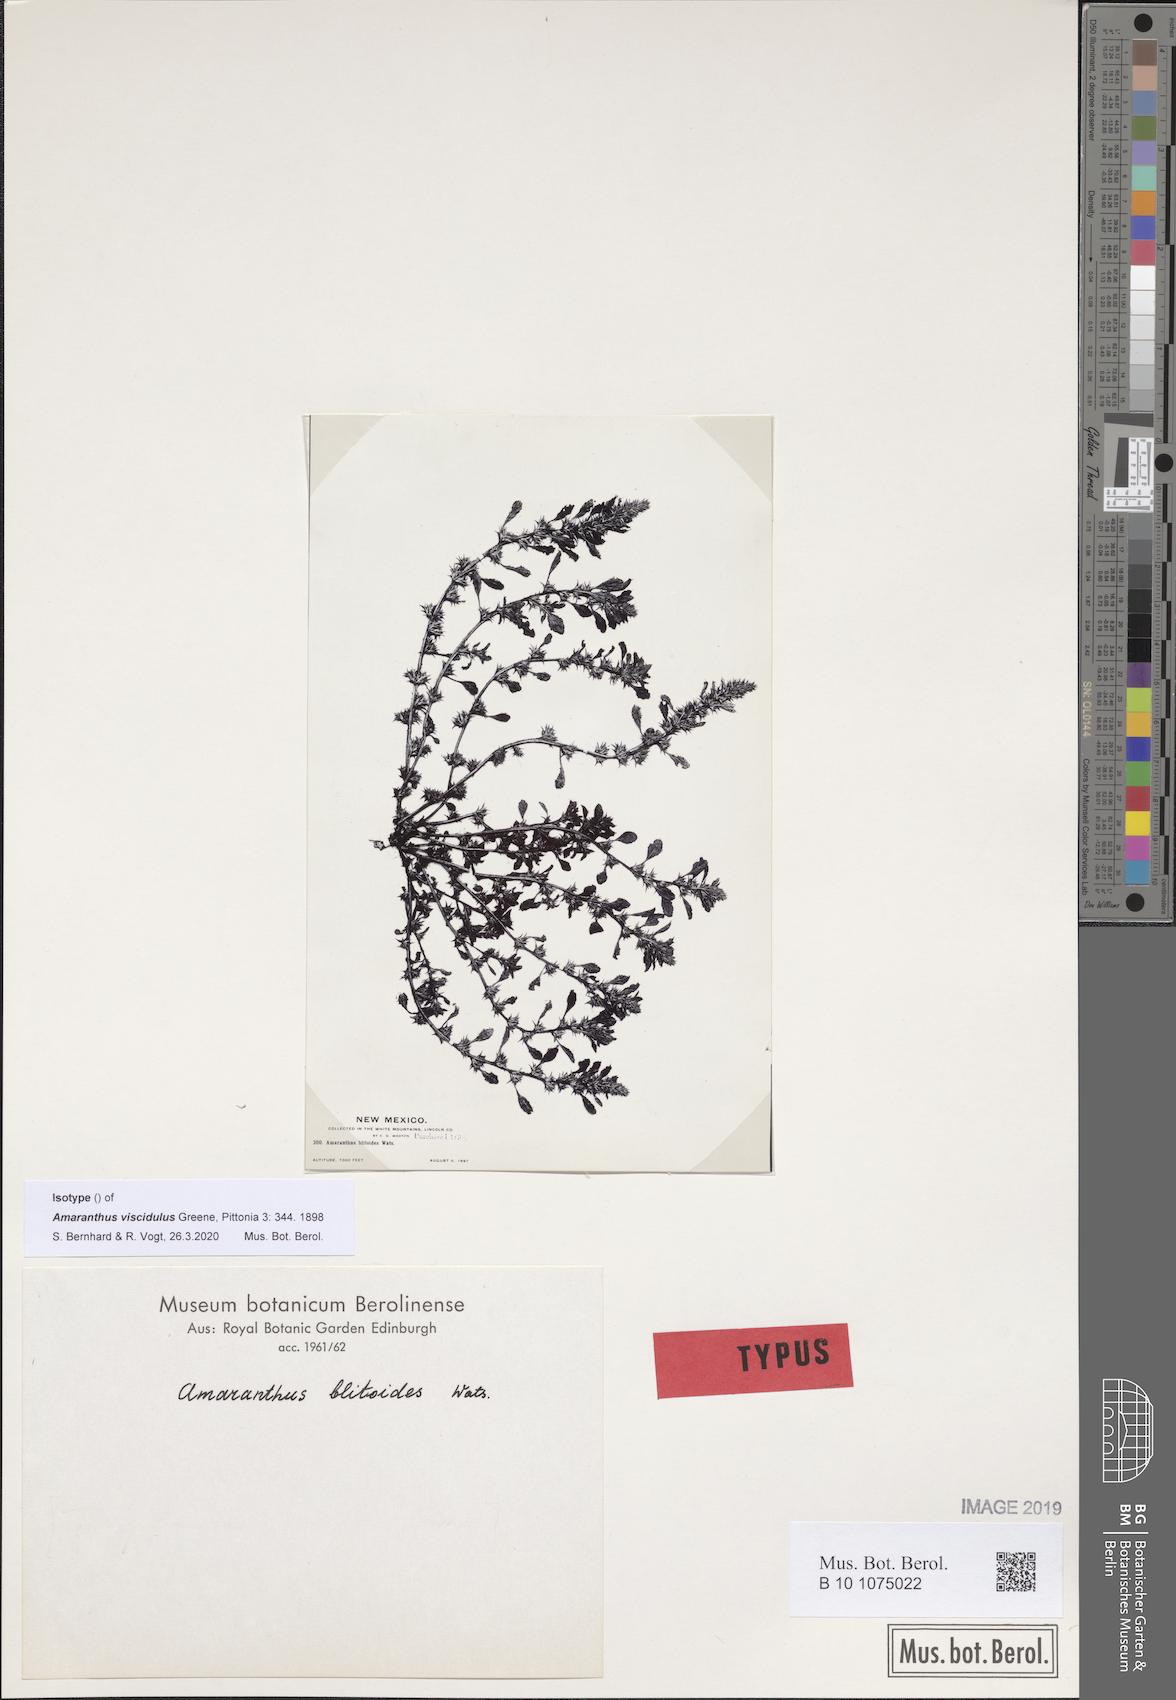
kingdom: Plantae
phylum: Tracheophyta
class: Magnoliopsida
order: Caryophyllales
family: Amaranthaceae
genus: Amaranthus
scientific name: Amaranthus viscidulus
